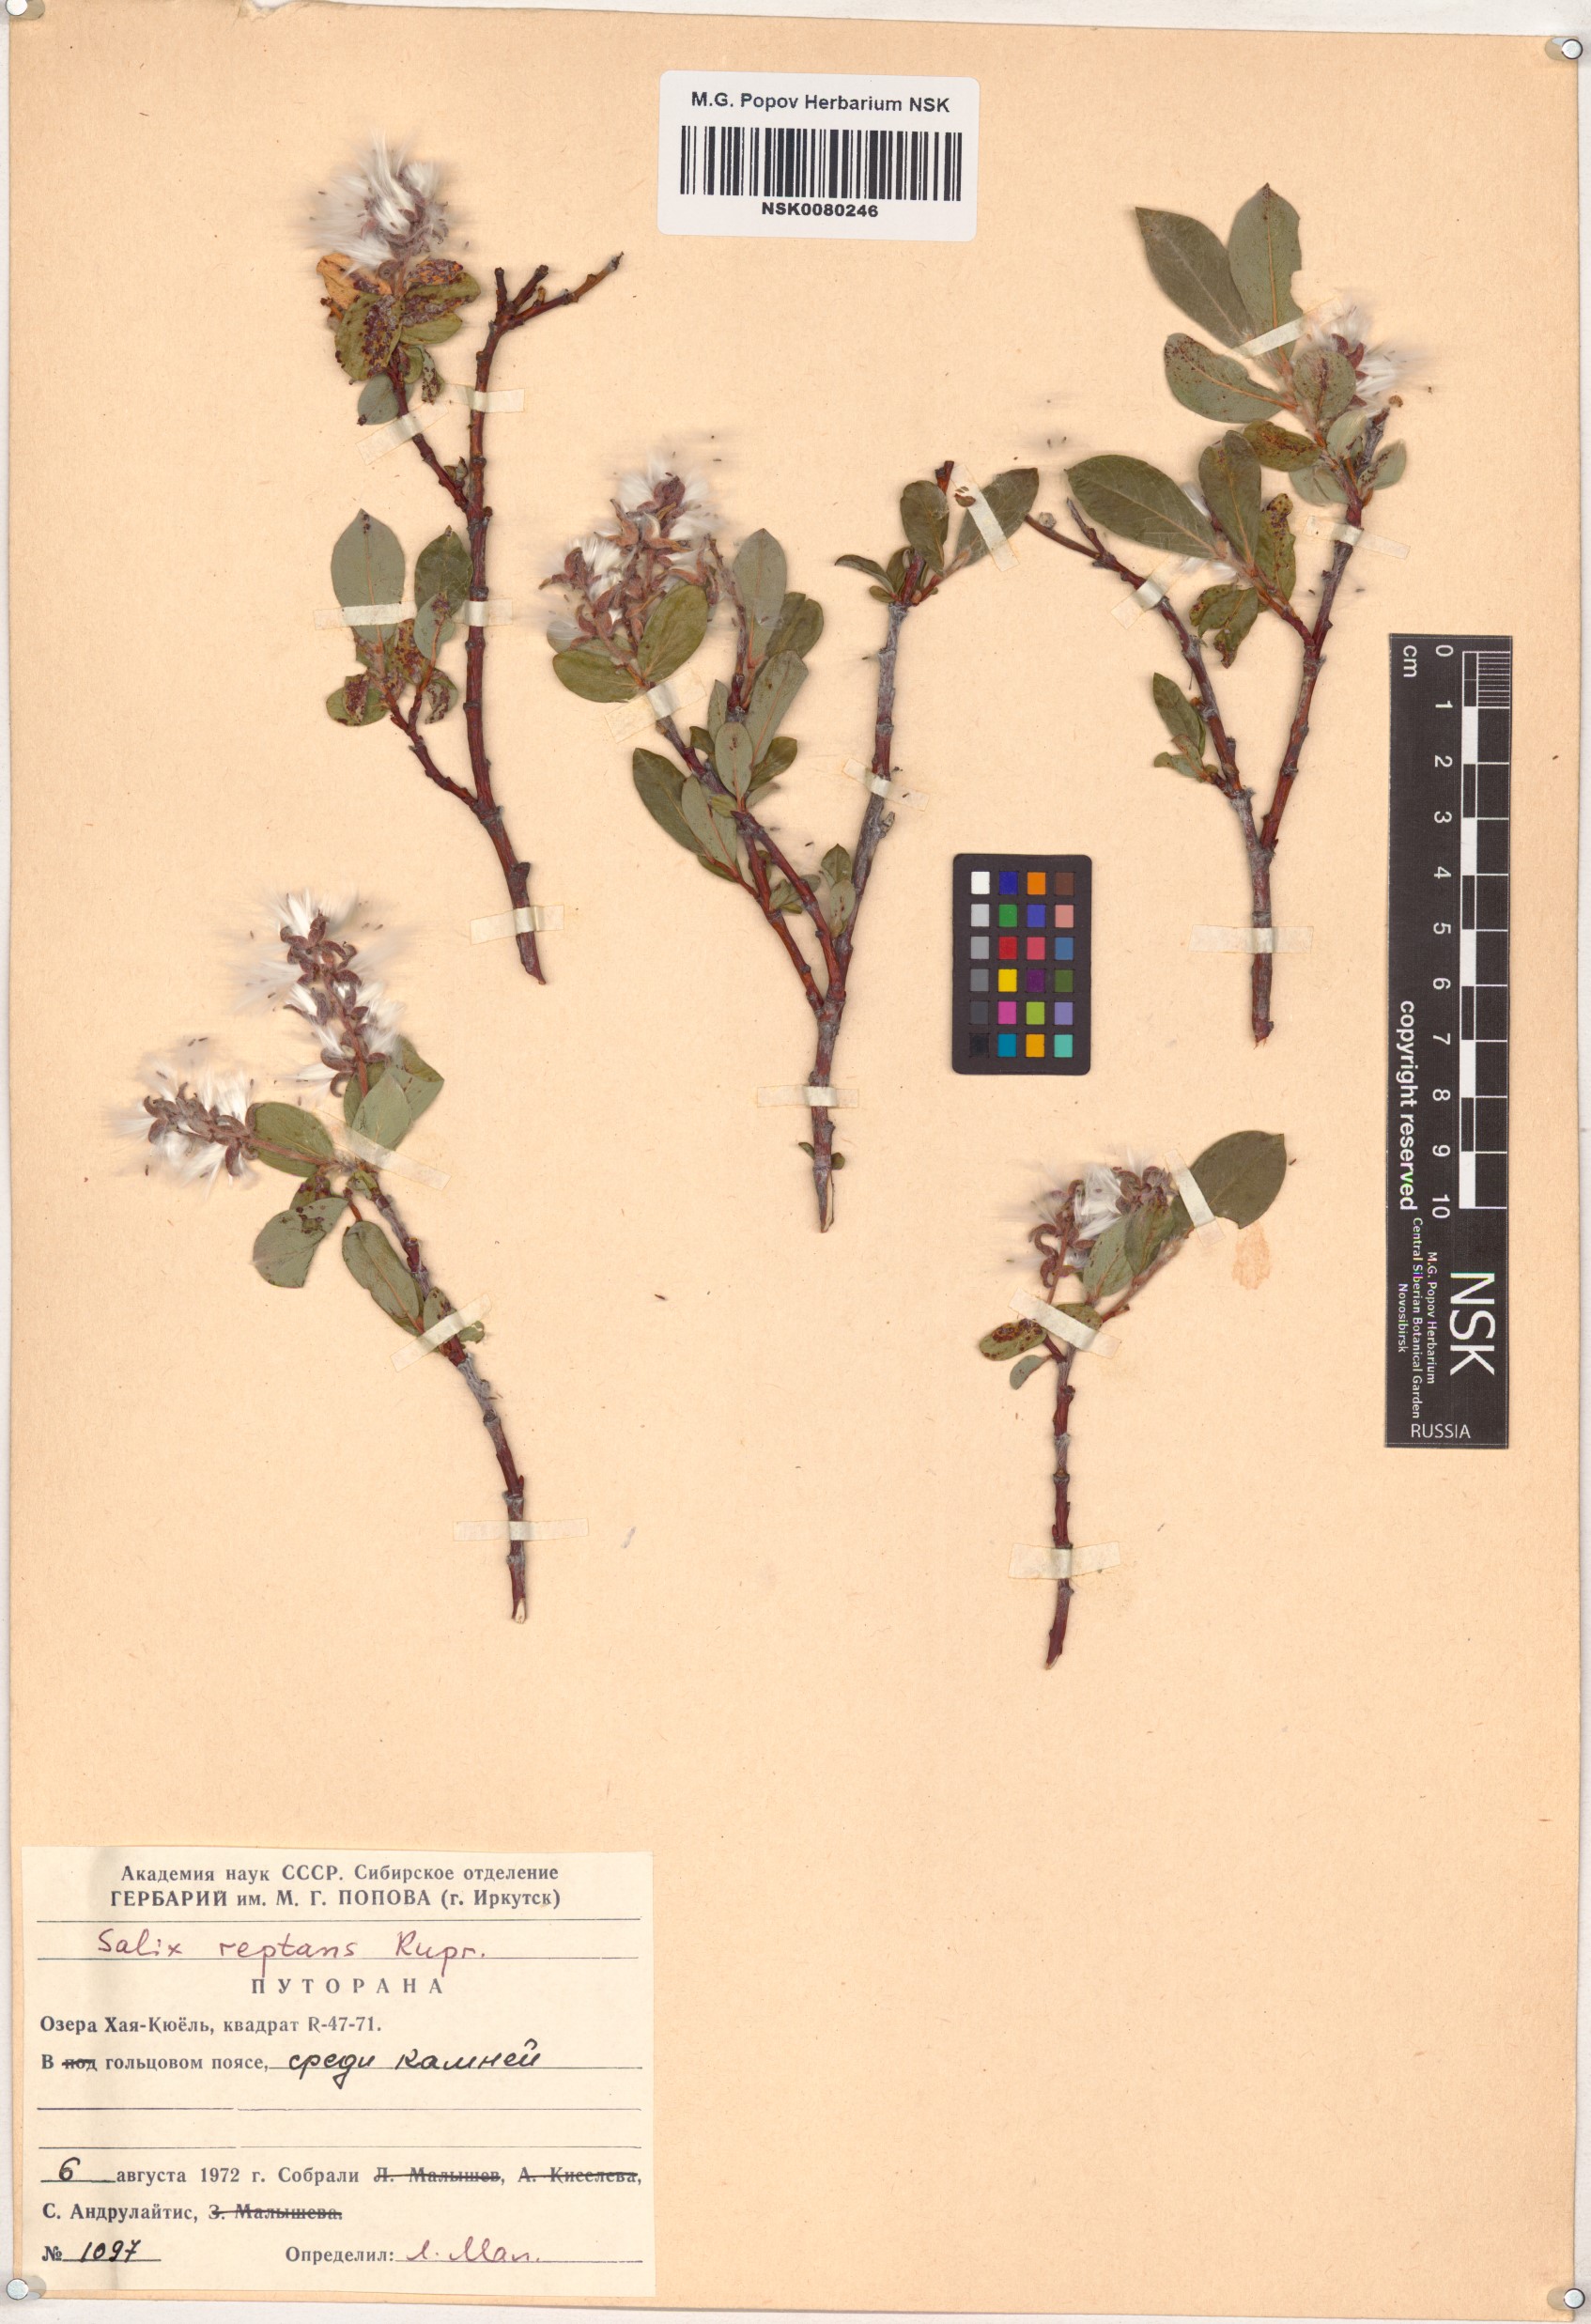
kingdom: Plantae
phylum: Tracheophyta
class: Magnoliopsida
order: Malpighiales
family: Salicaceae
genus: Salix
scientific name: Salix reptans
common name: Arctic creeping willow
